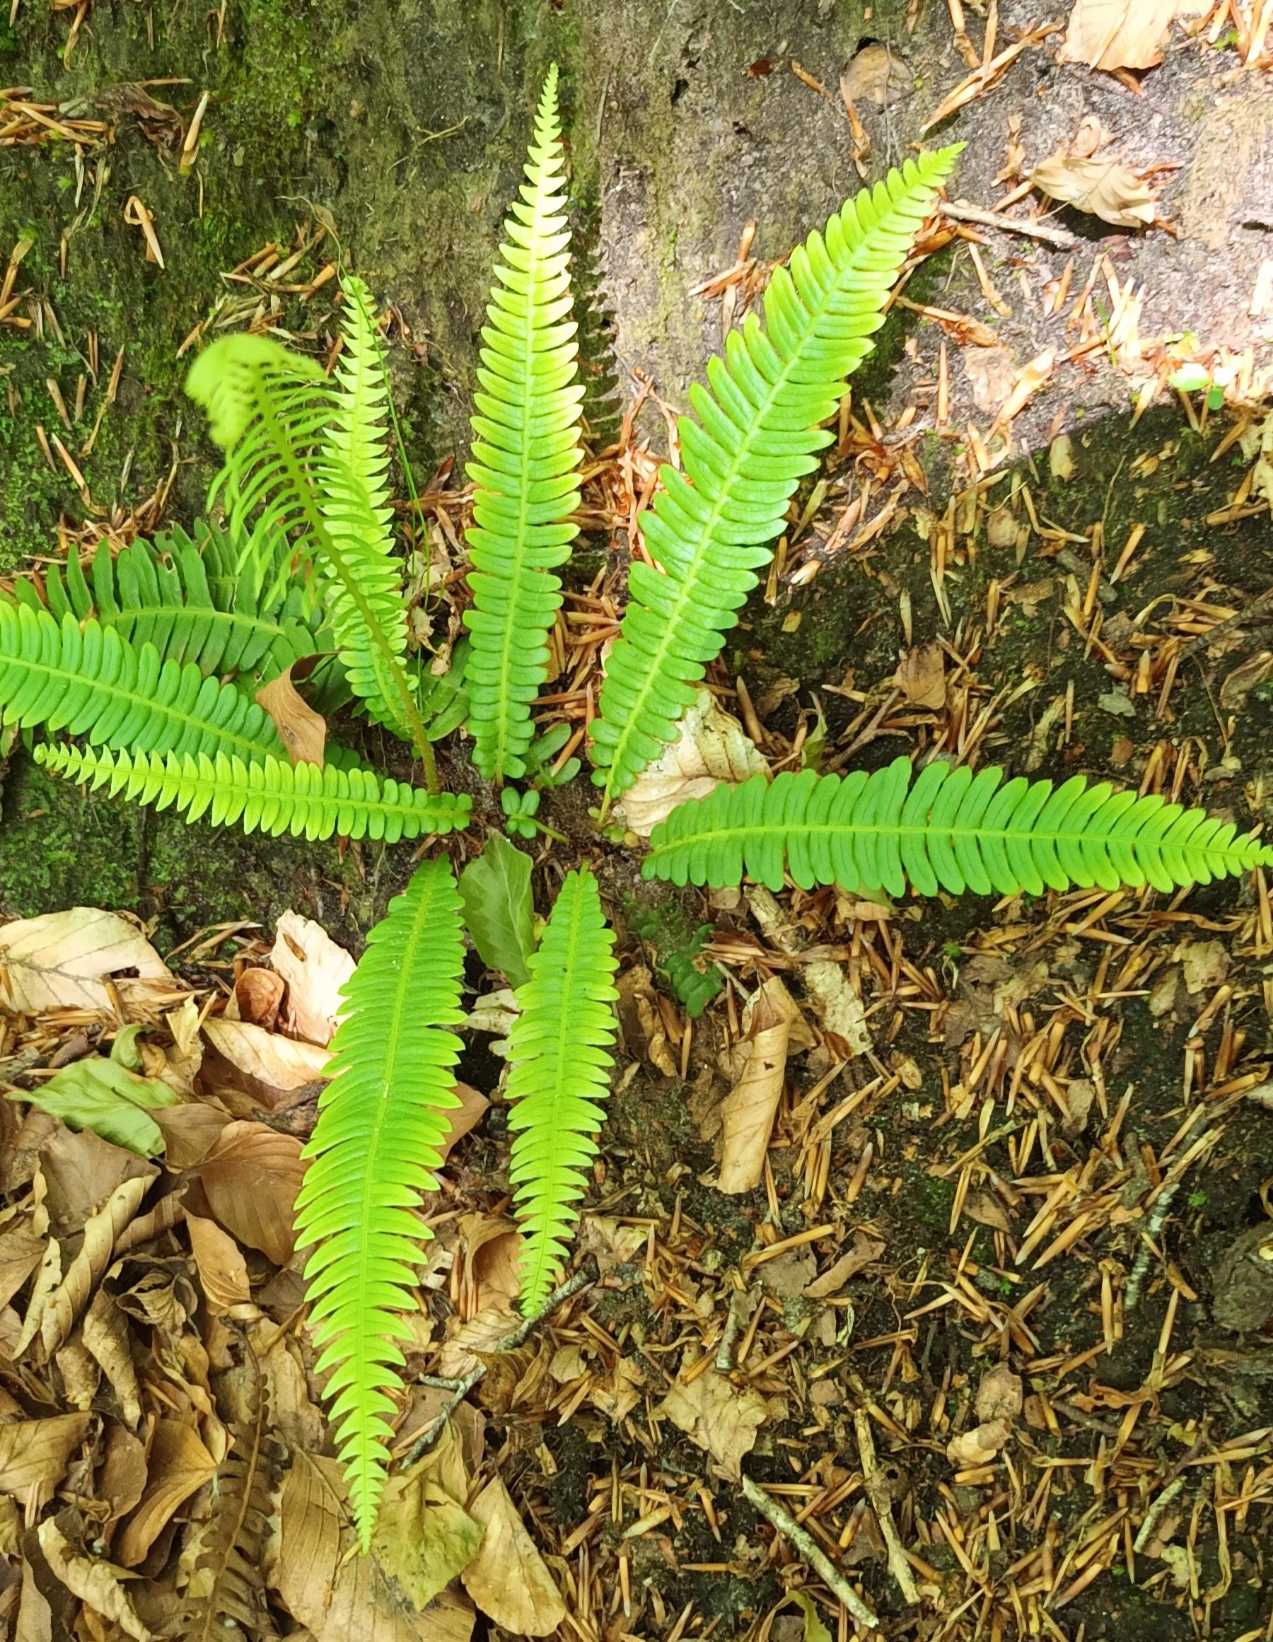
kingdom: Plantae
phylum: Tracheophyta
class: Polypodiopsida
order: Polypodiales
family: Blechnaceae
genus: Struthiopteris
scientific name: Struthiopteris spicant
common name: Kambregne
